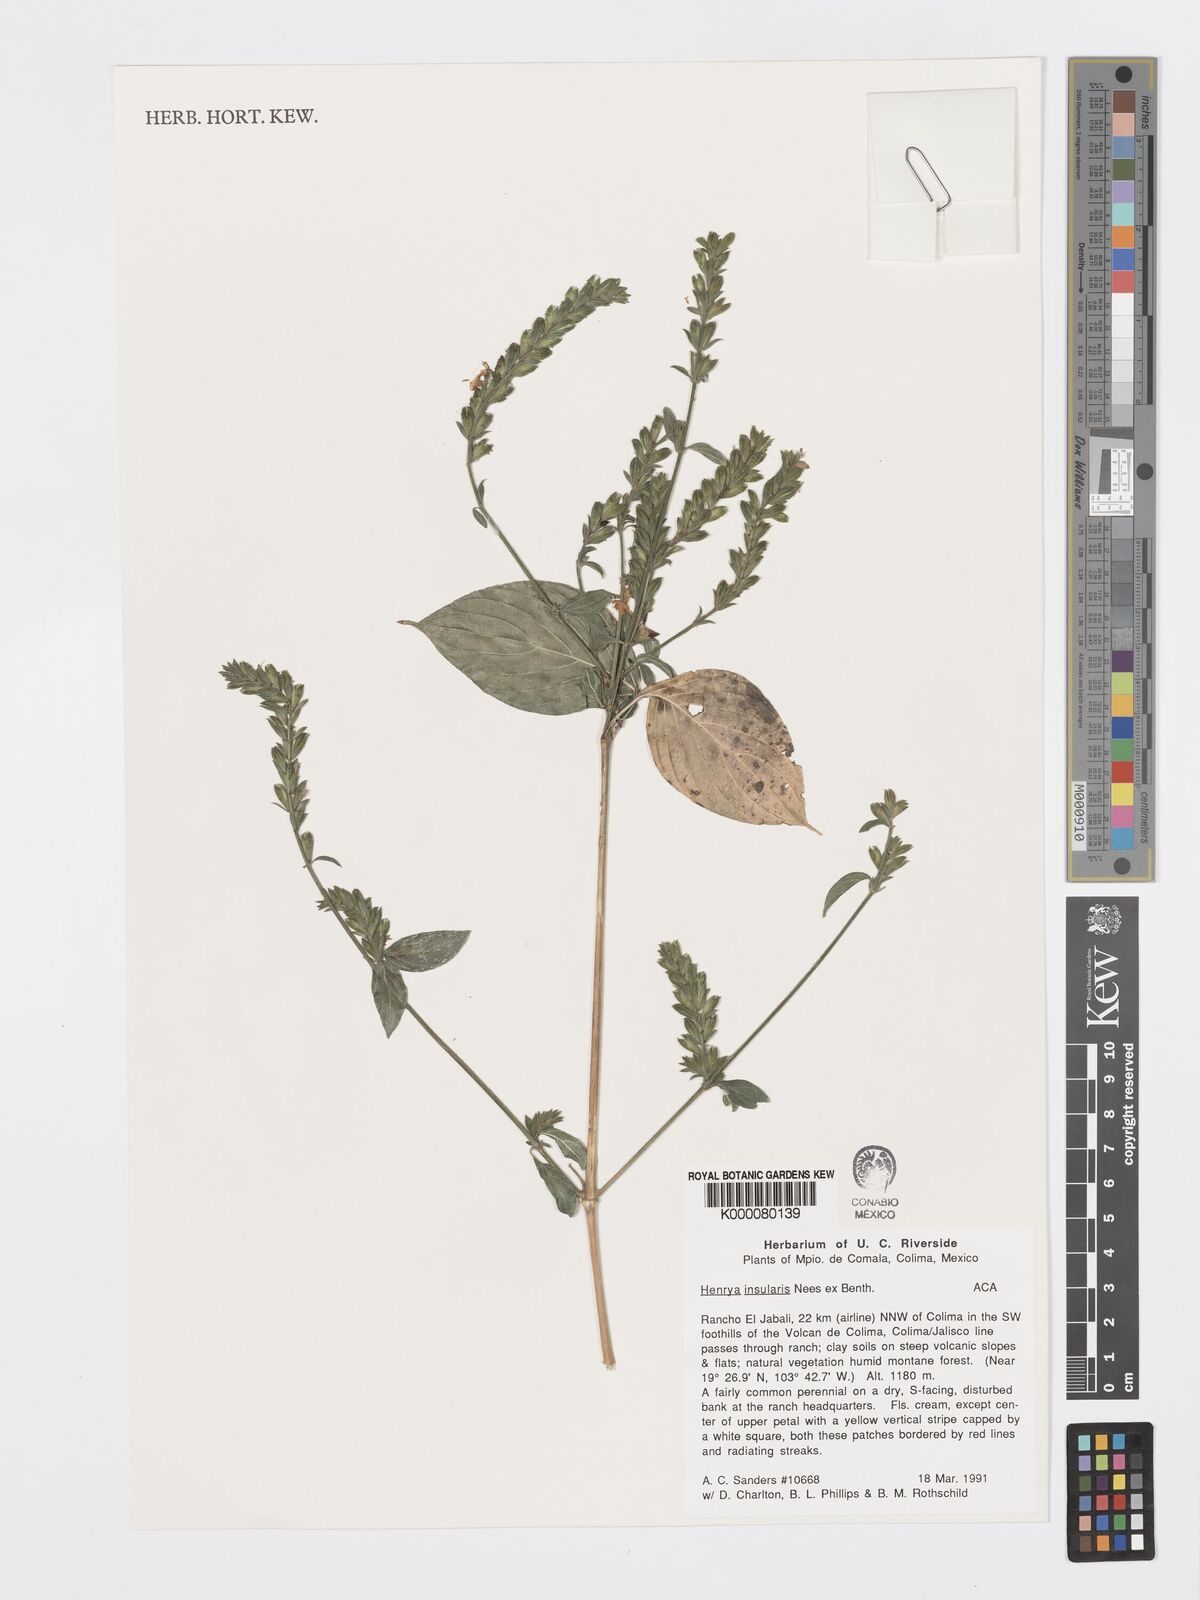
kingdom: Plantae
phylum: Tracheophyta
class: Magnoliopsida
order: Lamiales
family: Acanthaceae
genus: Henrya
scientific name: Henrya
